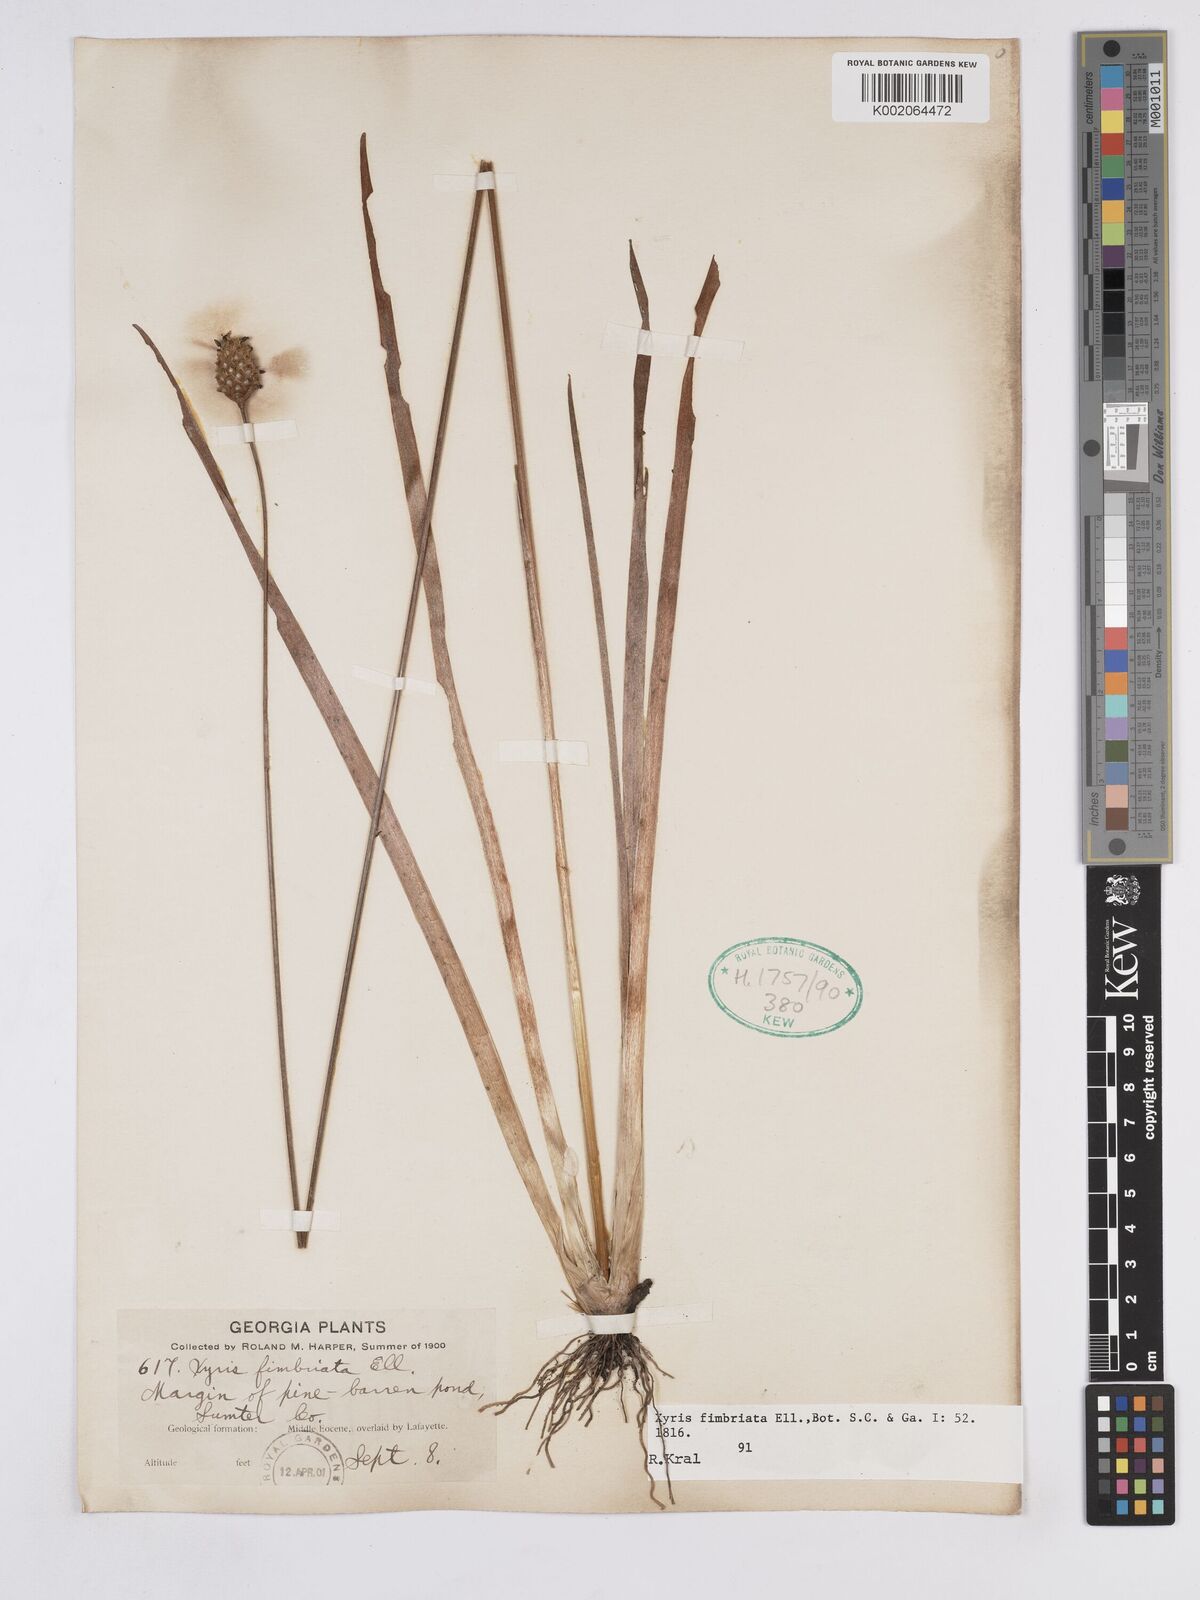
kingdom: Plantae
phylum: Tracheophyta
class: Liliopsida
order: Poales
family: Xyridaceae
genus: Xyris
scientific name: Xyris fimbriata
